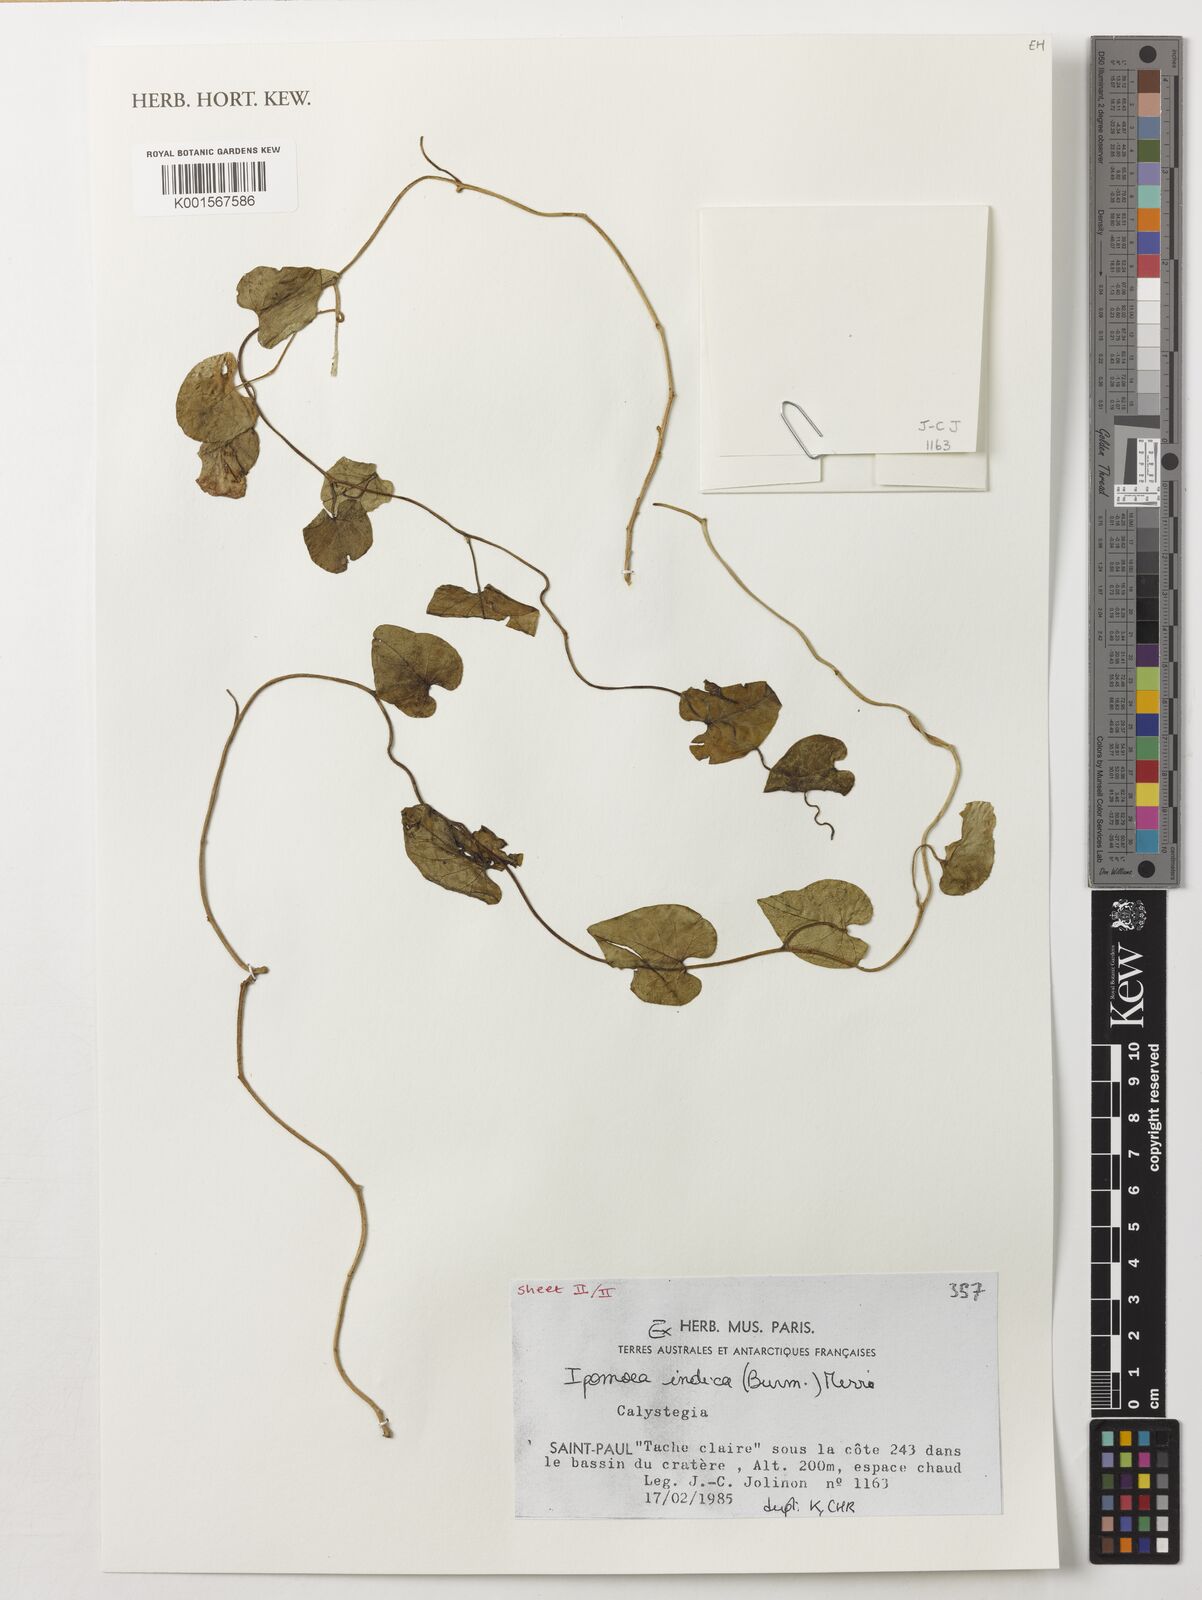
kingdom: Plantae
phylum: Tracheophyta
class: Magnoliopsida
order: Solanales
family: Convolvulaceae
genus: Ipomoea
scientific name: Ipomoea indica
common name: Blue dawnflower
